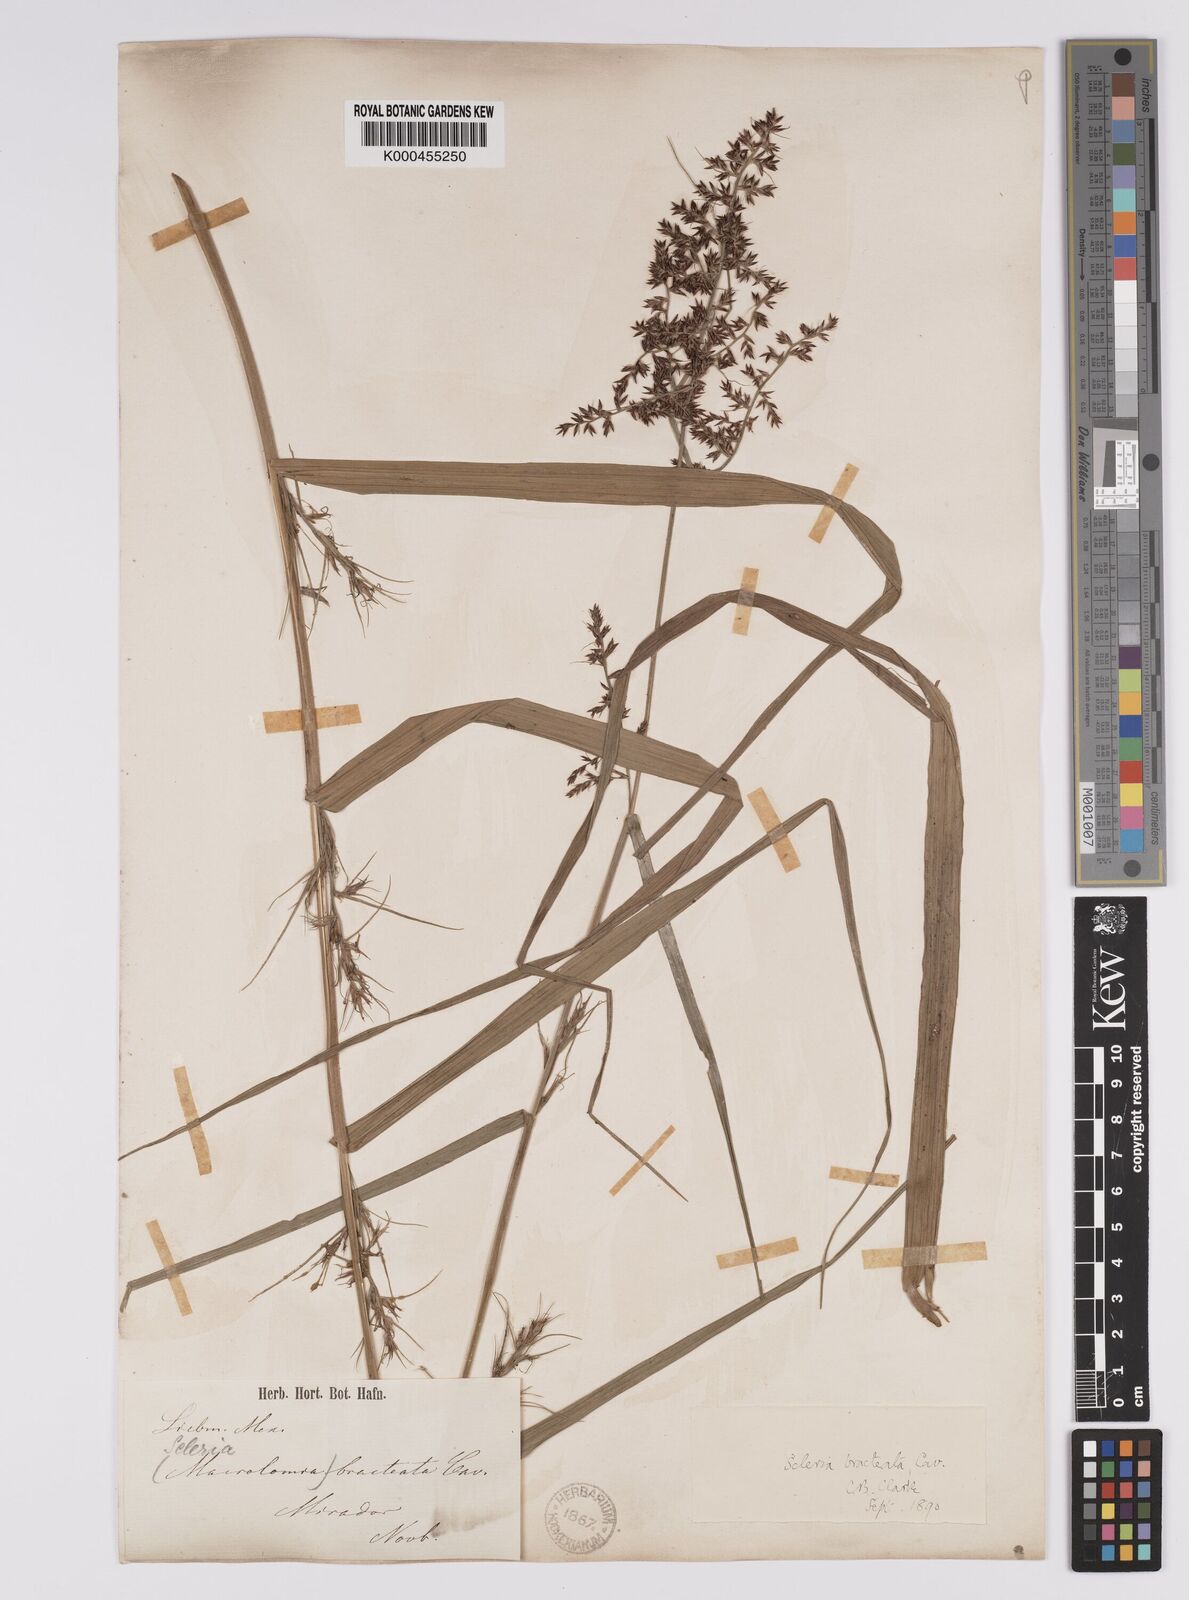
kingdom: Plantae
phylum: Tracheophyta
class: Liliopsida
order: Poales
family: Cyperaceae
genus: Scleria
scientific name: Scleria bracteata
